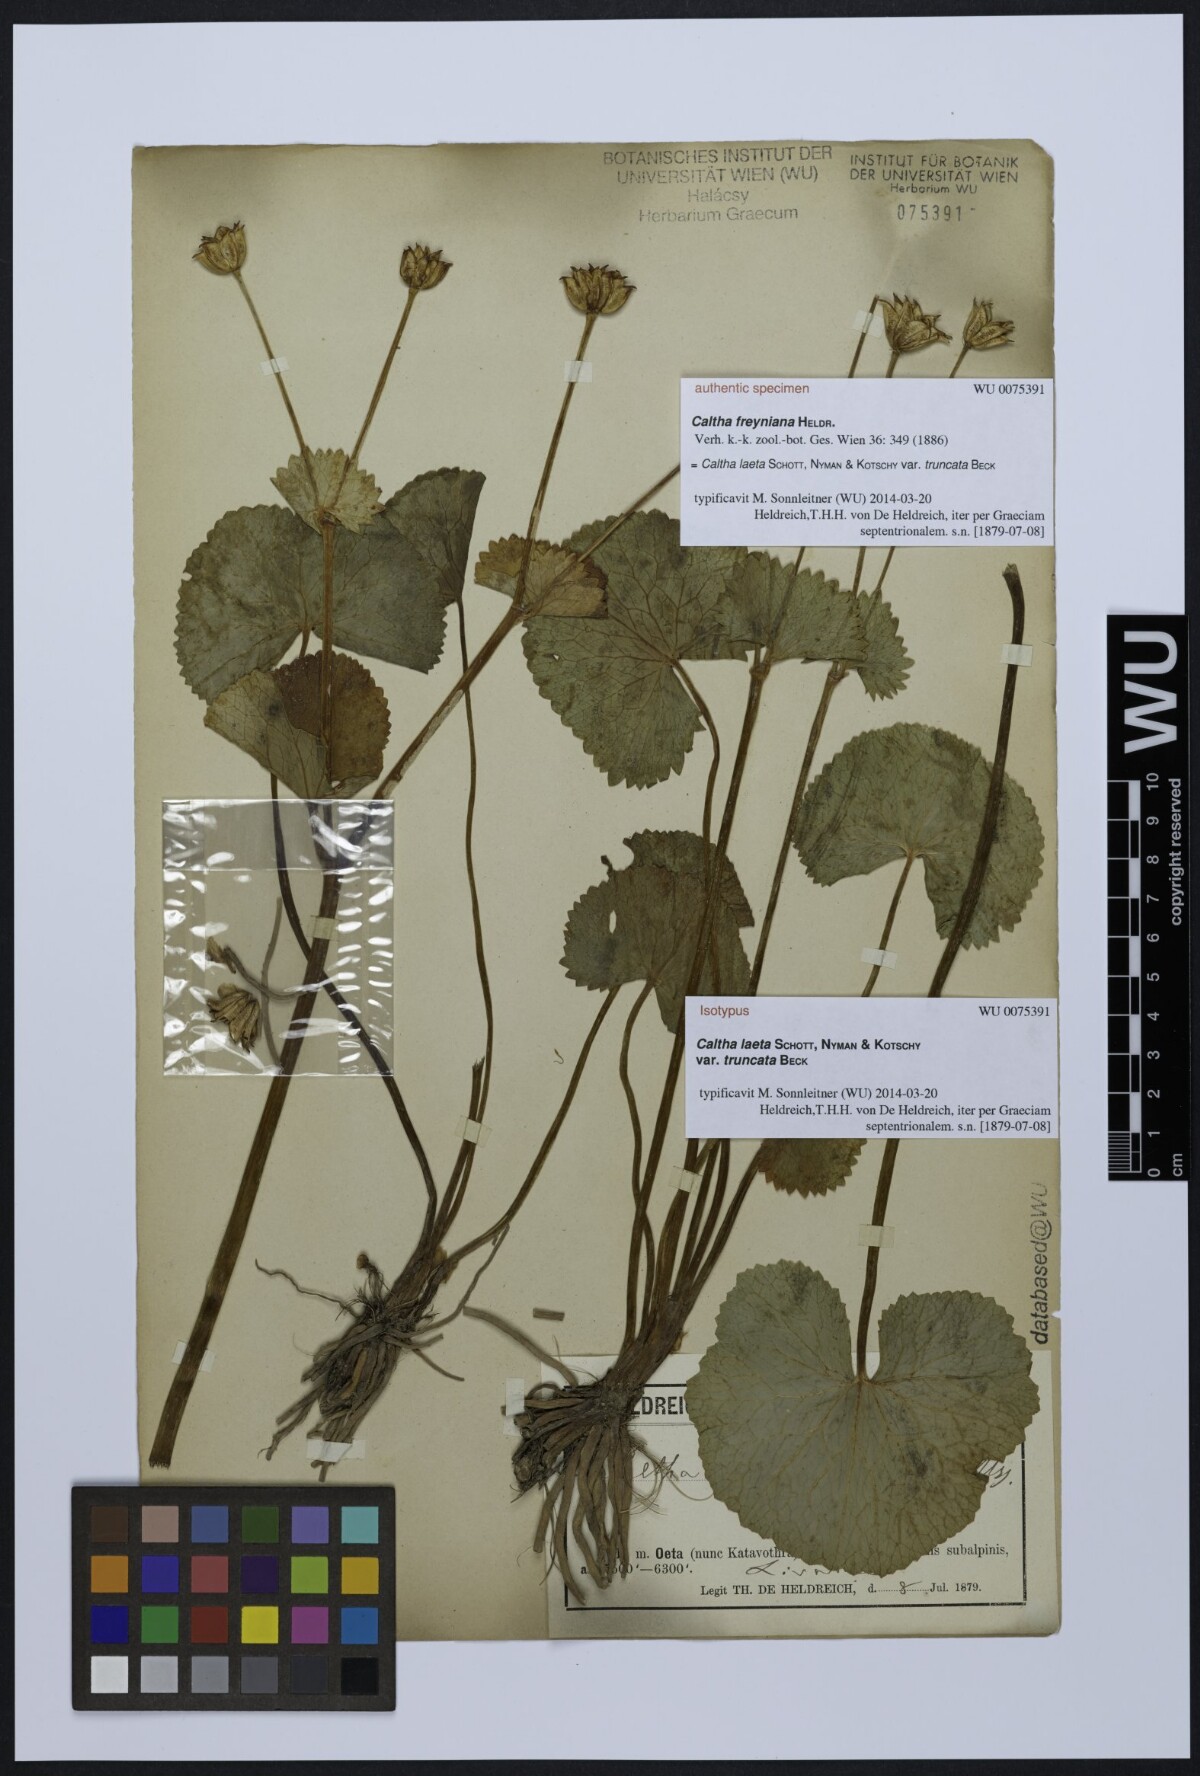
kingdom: Plantae
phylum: Tracheophyta
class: Magnoliopsida
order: Ranunculales
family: Ranunculaceae
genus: Caltha
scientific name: Caltha palustris
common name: Marsh marigold
